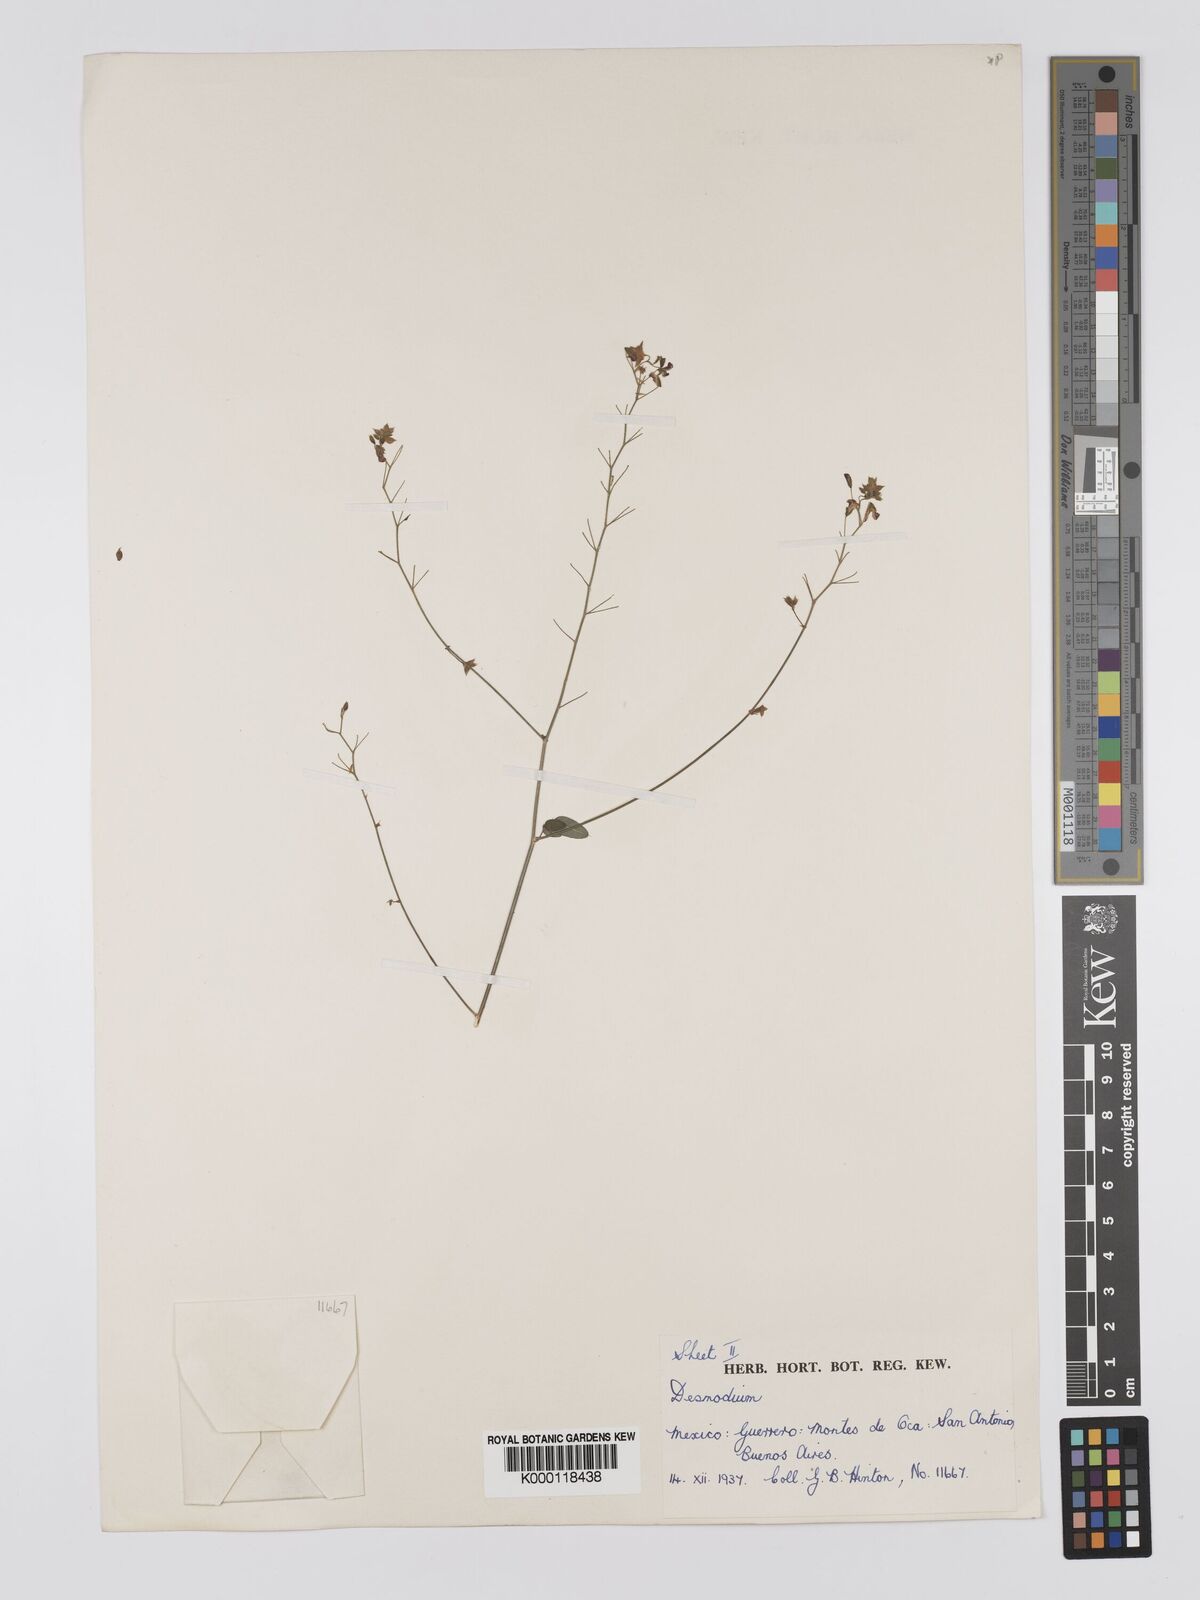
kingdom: Plantae
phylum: Tracheophyta
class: Magnoliopsida
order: Fabales
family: Fabaceae
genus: Desmodium
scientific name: Desmodium
